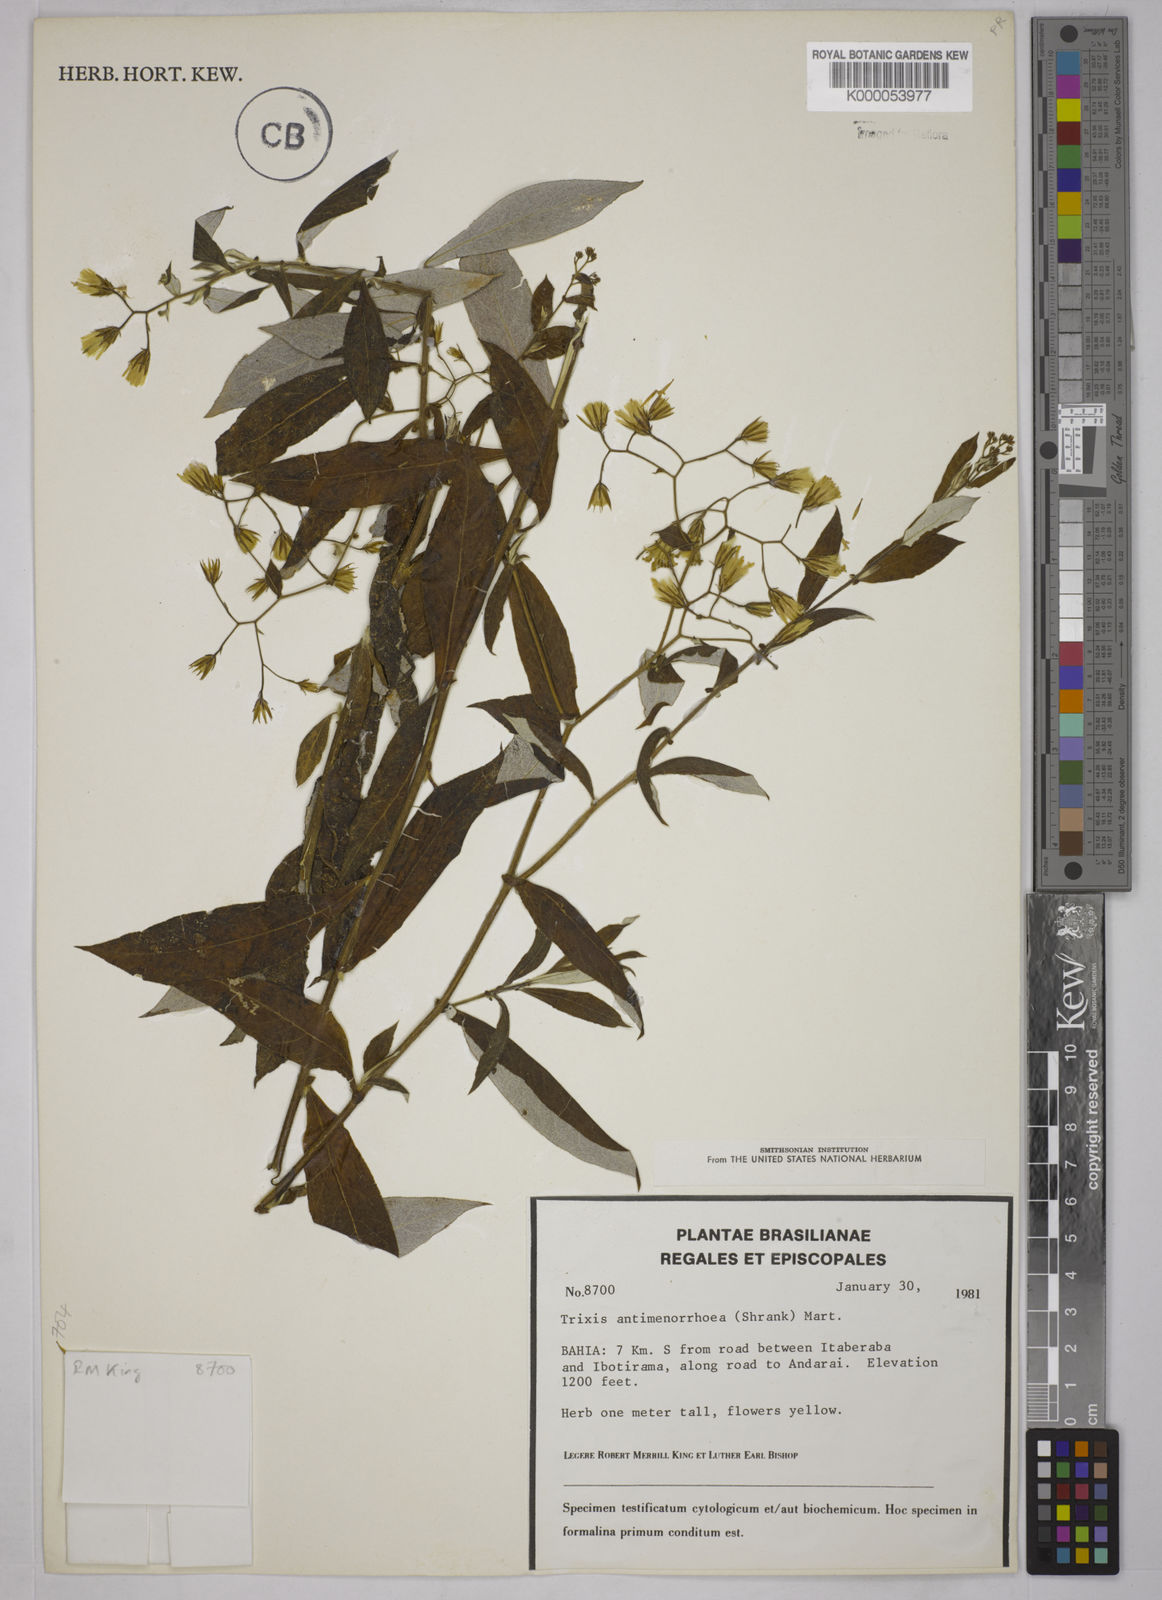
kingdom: Plantae
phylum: Tracheophyta
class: Magnoliopsida
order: Asterales
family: Asteraceae
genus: Trixis
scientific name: Trixis divaricata
